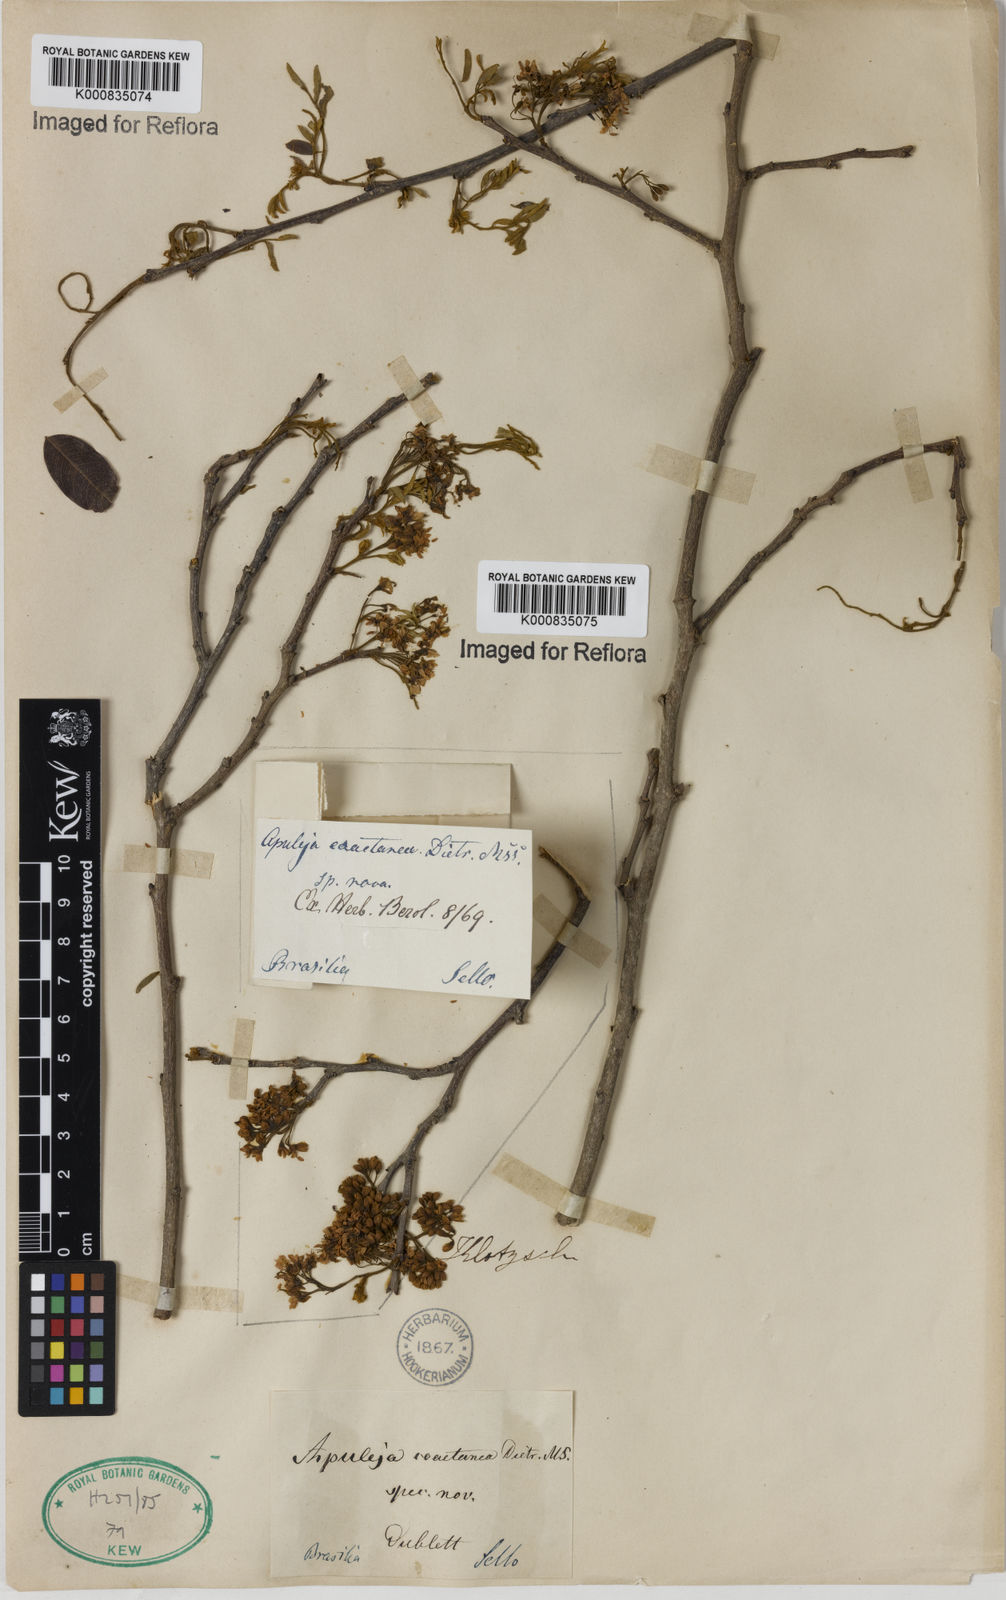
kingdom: Plantae
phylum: Tracheophyta
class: Magnoliopsida
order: Asterales
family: Asteraceae
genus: Berkheya
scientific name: Berkheya
